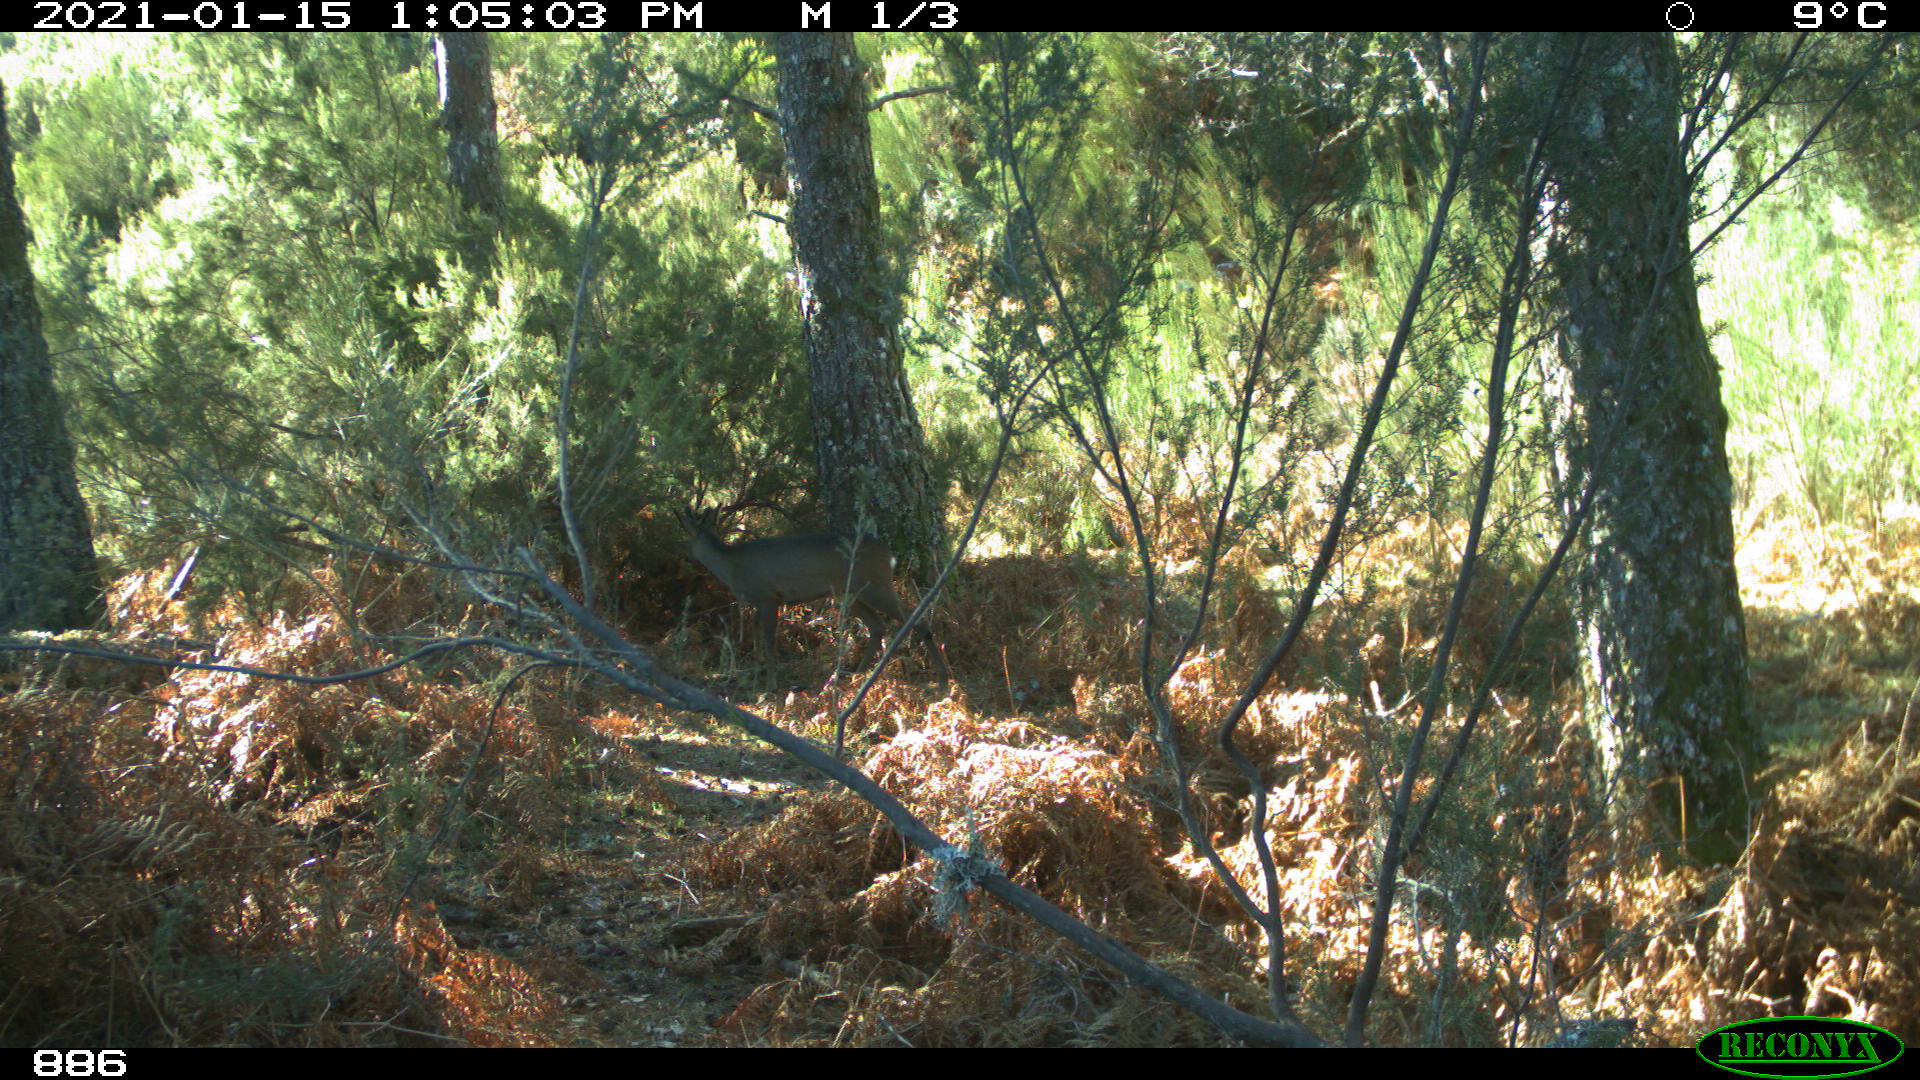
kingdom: Animalia
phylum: Chordata
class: Mammalia
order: Artiodactyla
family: Cervidae
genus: Capreolus
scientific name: Capreolus capreolus
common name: Western roe deer
